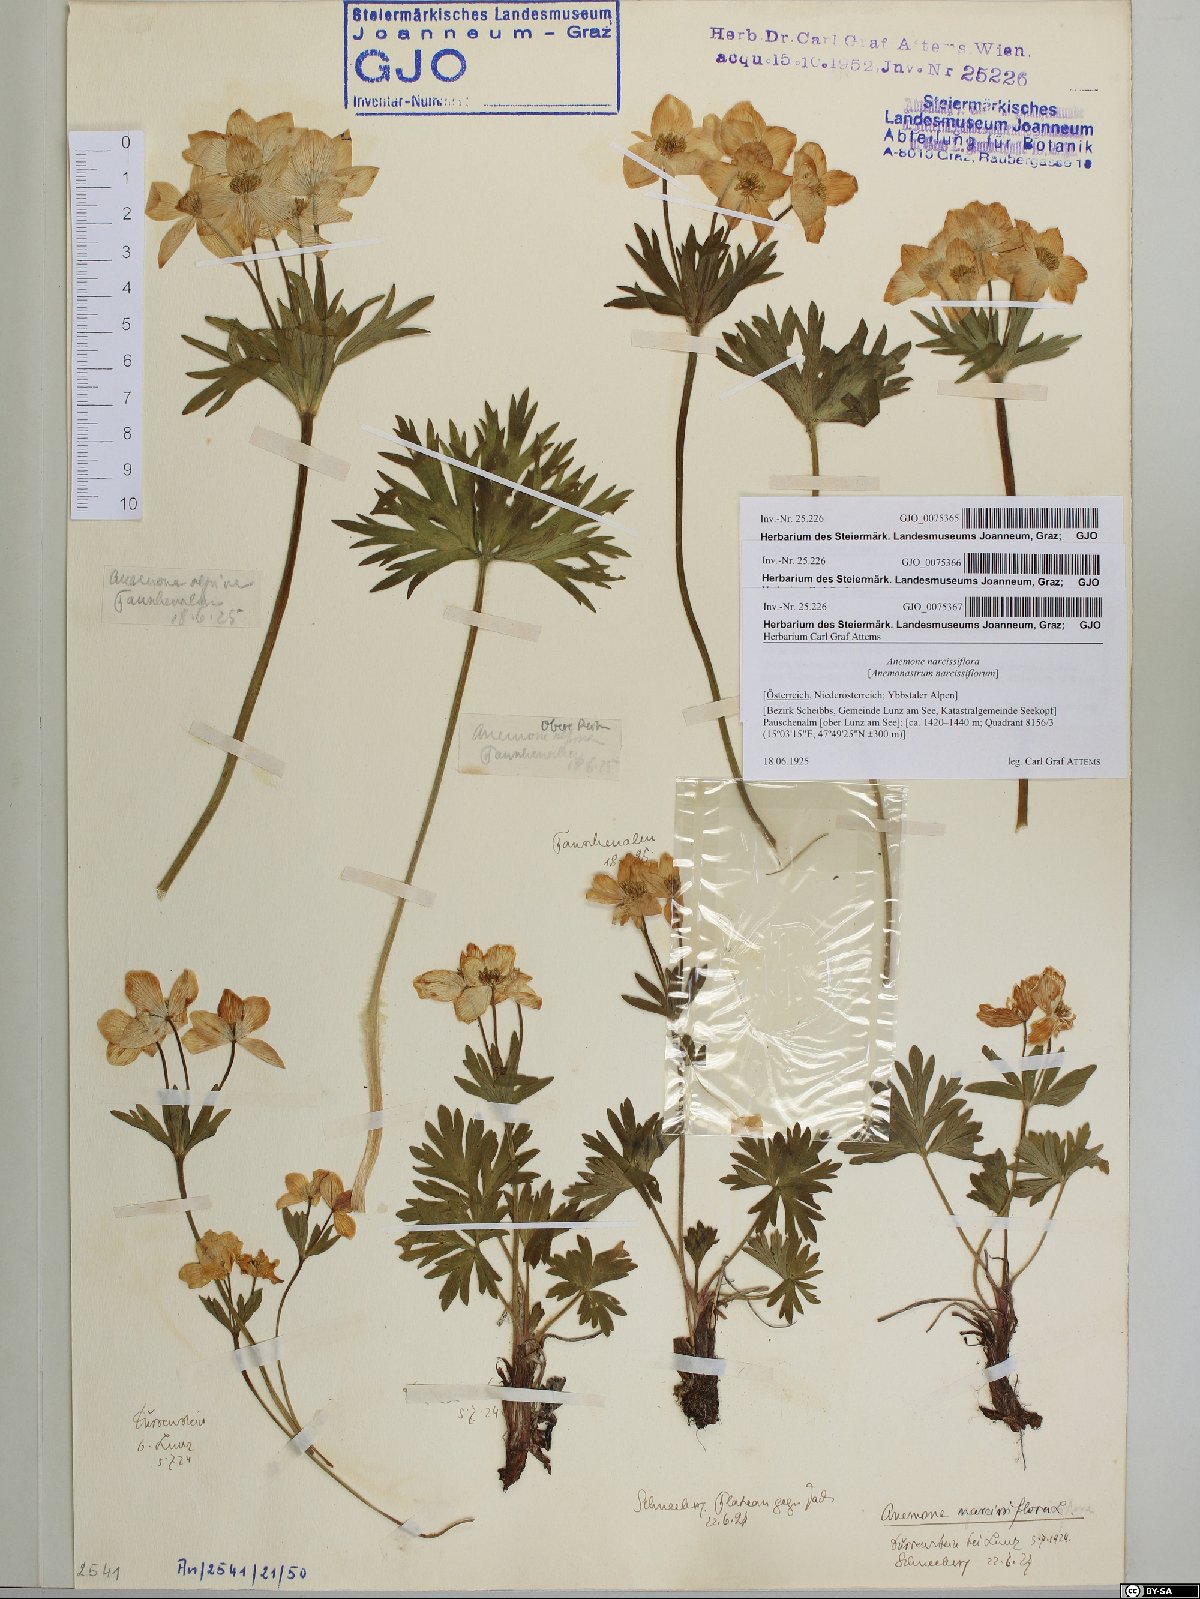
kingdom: Plantae
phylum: Tracheophyta
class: Magnoliopsida
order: Ranunculales
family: Ranunculaceae
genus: Anemonastrum
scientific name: Anemonastrum narcissiflorum
